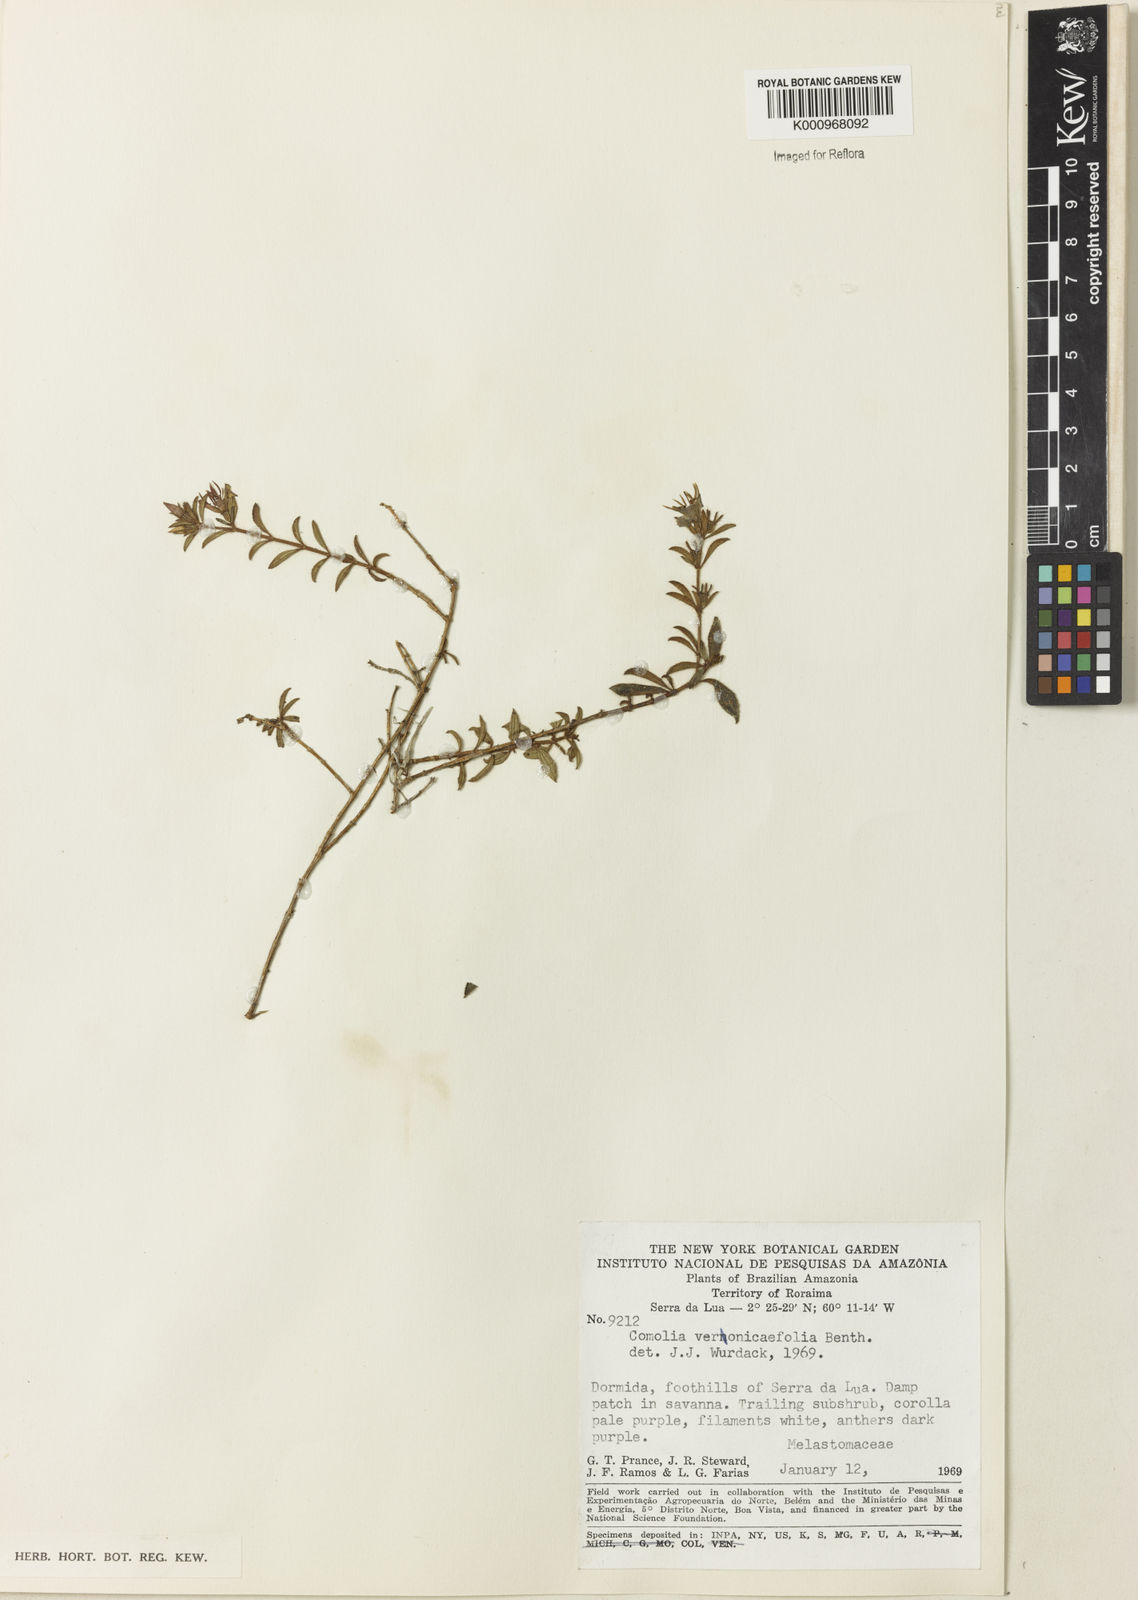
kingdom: Plantae
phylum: Tracheophyta
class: Magnoliopsida
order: Myrtales
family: Melastomataceae
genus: Comolia
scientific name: Comolia villosa
